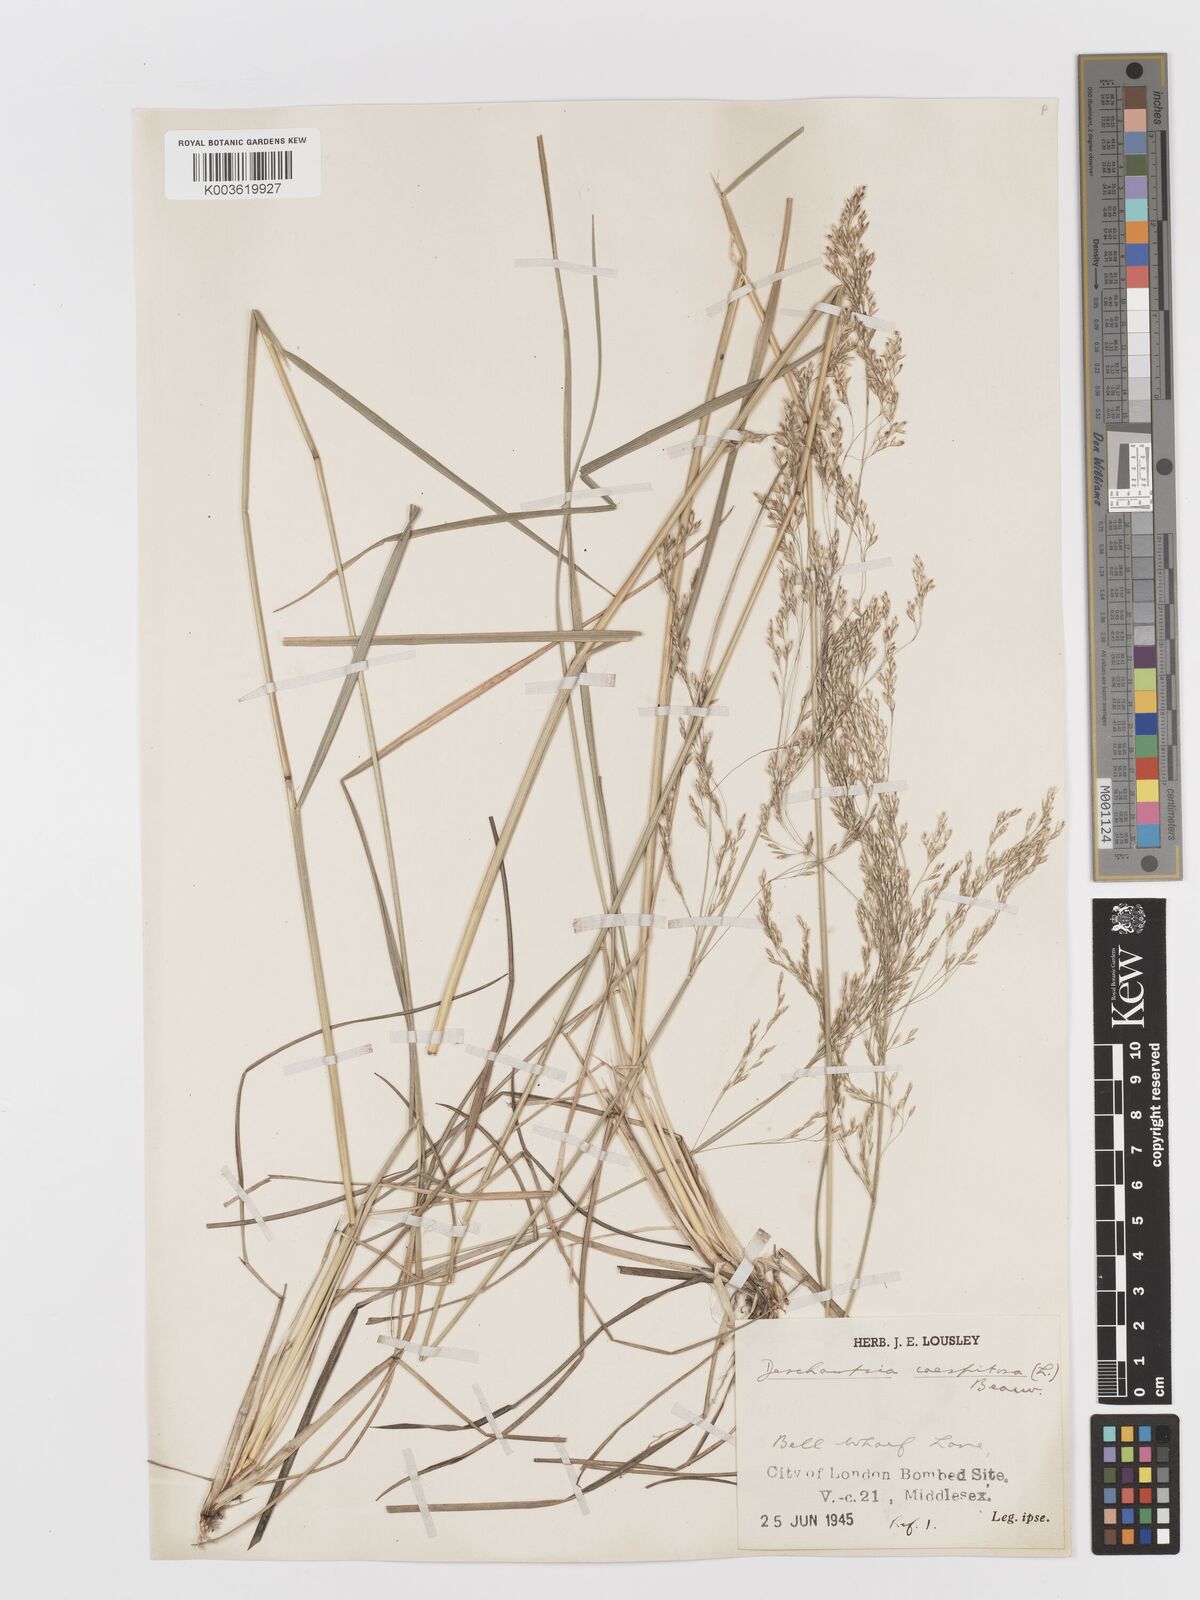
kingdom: Plantae
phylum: Tracheophyta
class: Liliopsida
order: Poales
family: Poaceae
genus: Deschampsia
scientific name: Deschampsia
